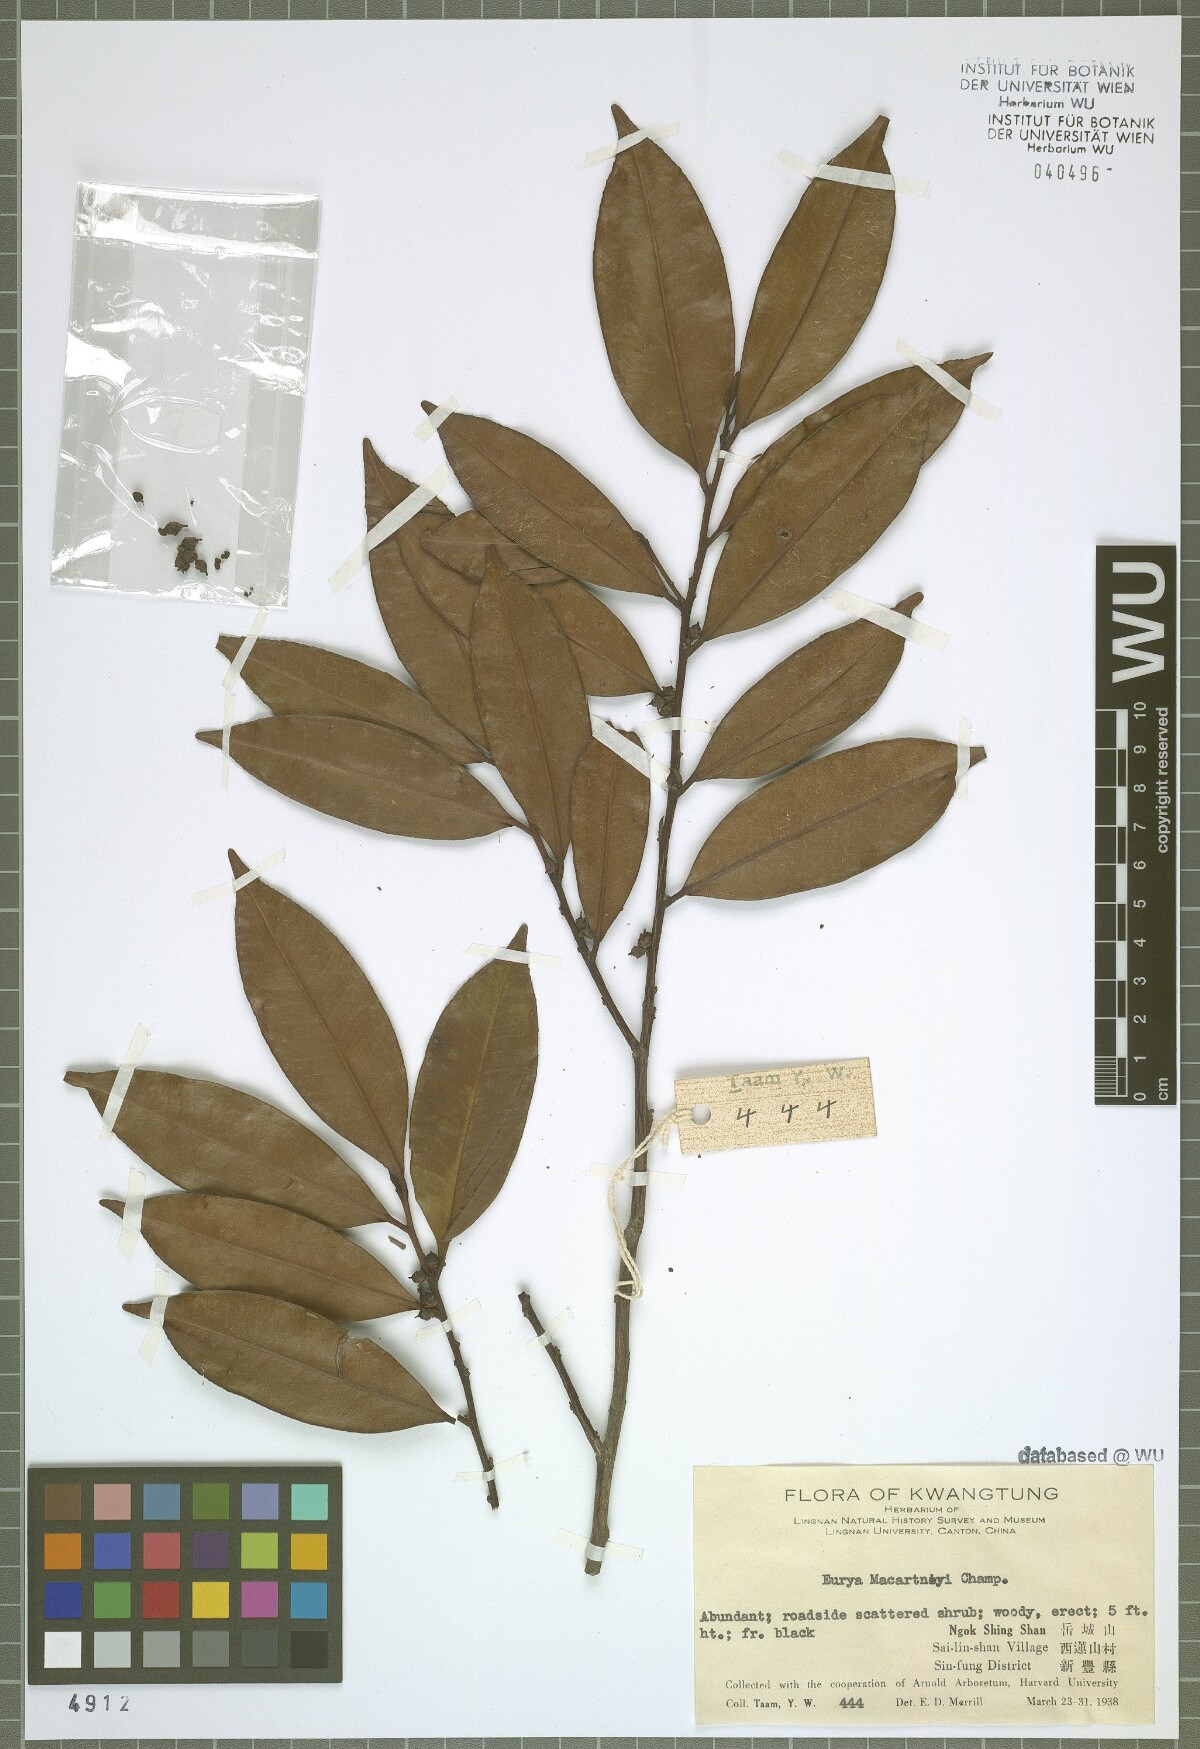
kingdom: Plantae
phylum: Tracheophyta
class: Magnoliopsida
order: Ericales
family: Pentaphylacaceae
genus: Eurya
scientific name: Eurya macartneyi
